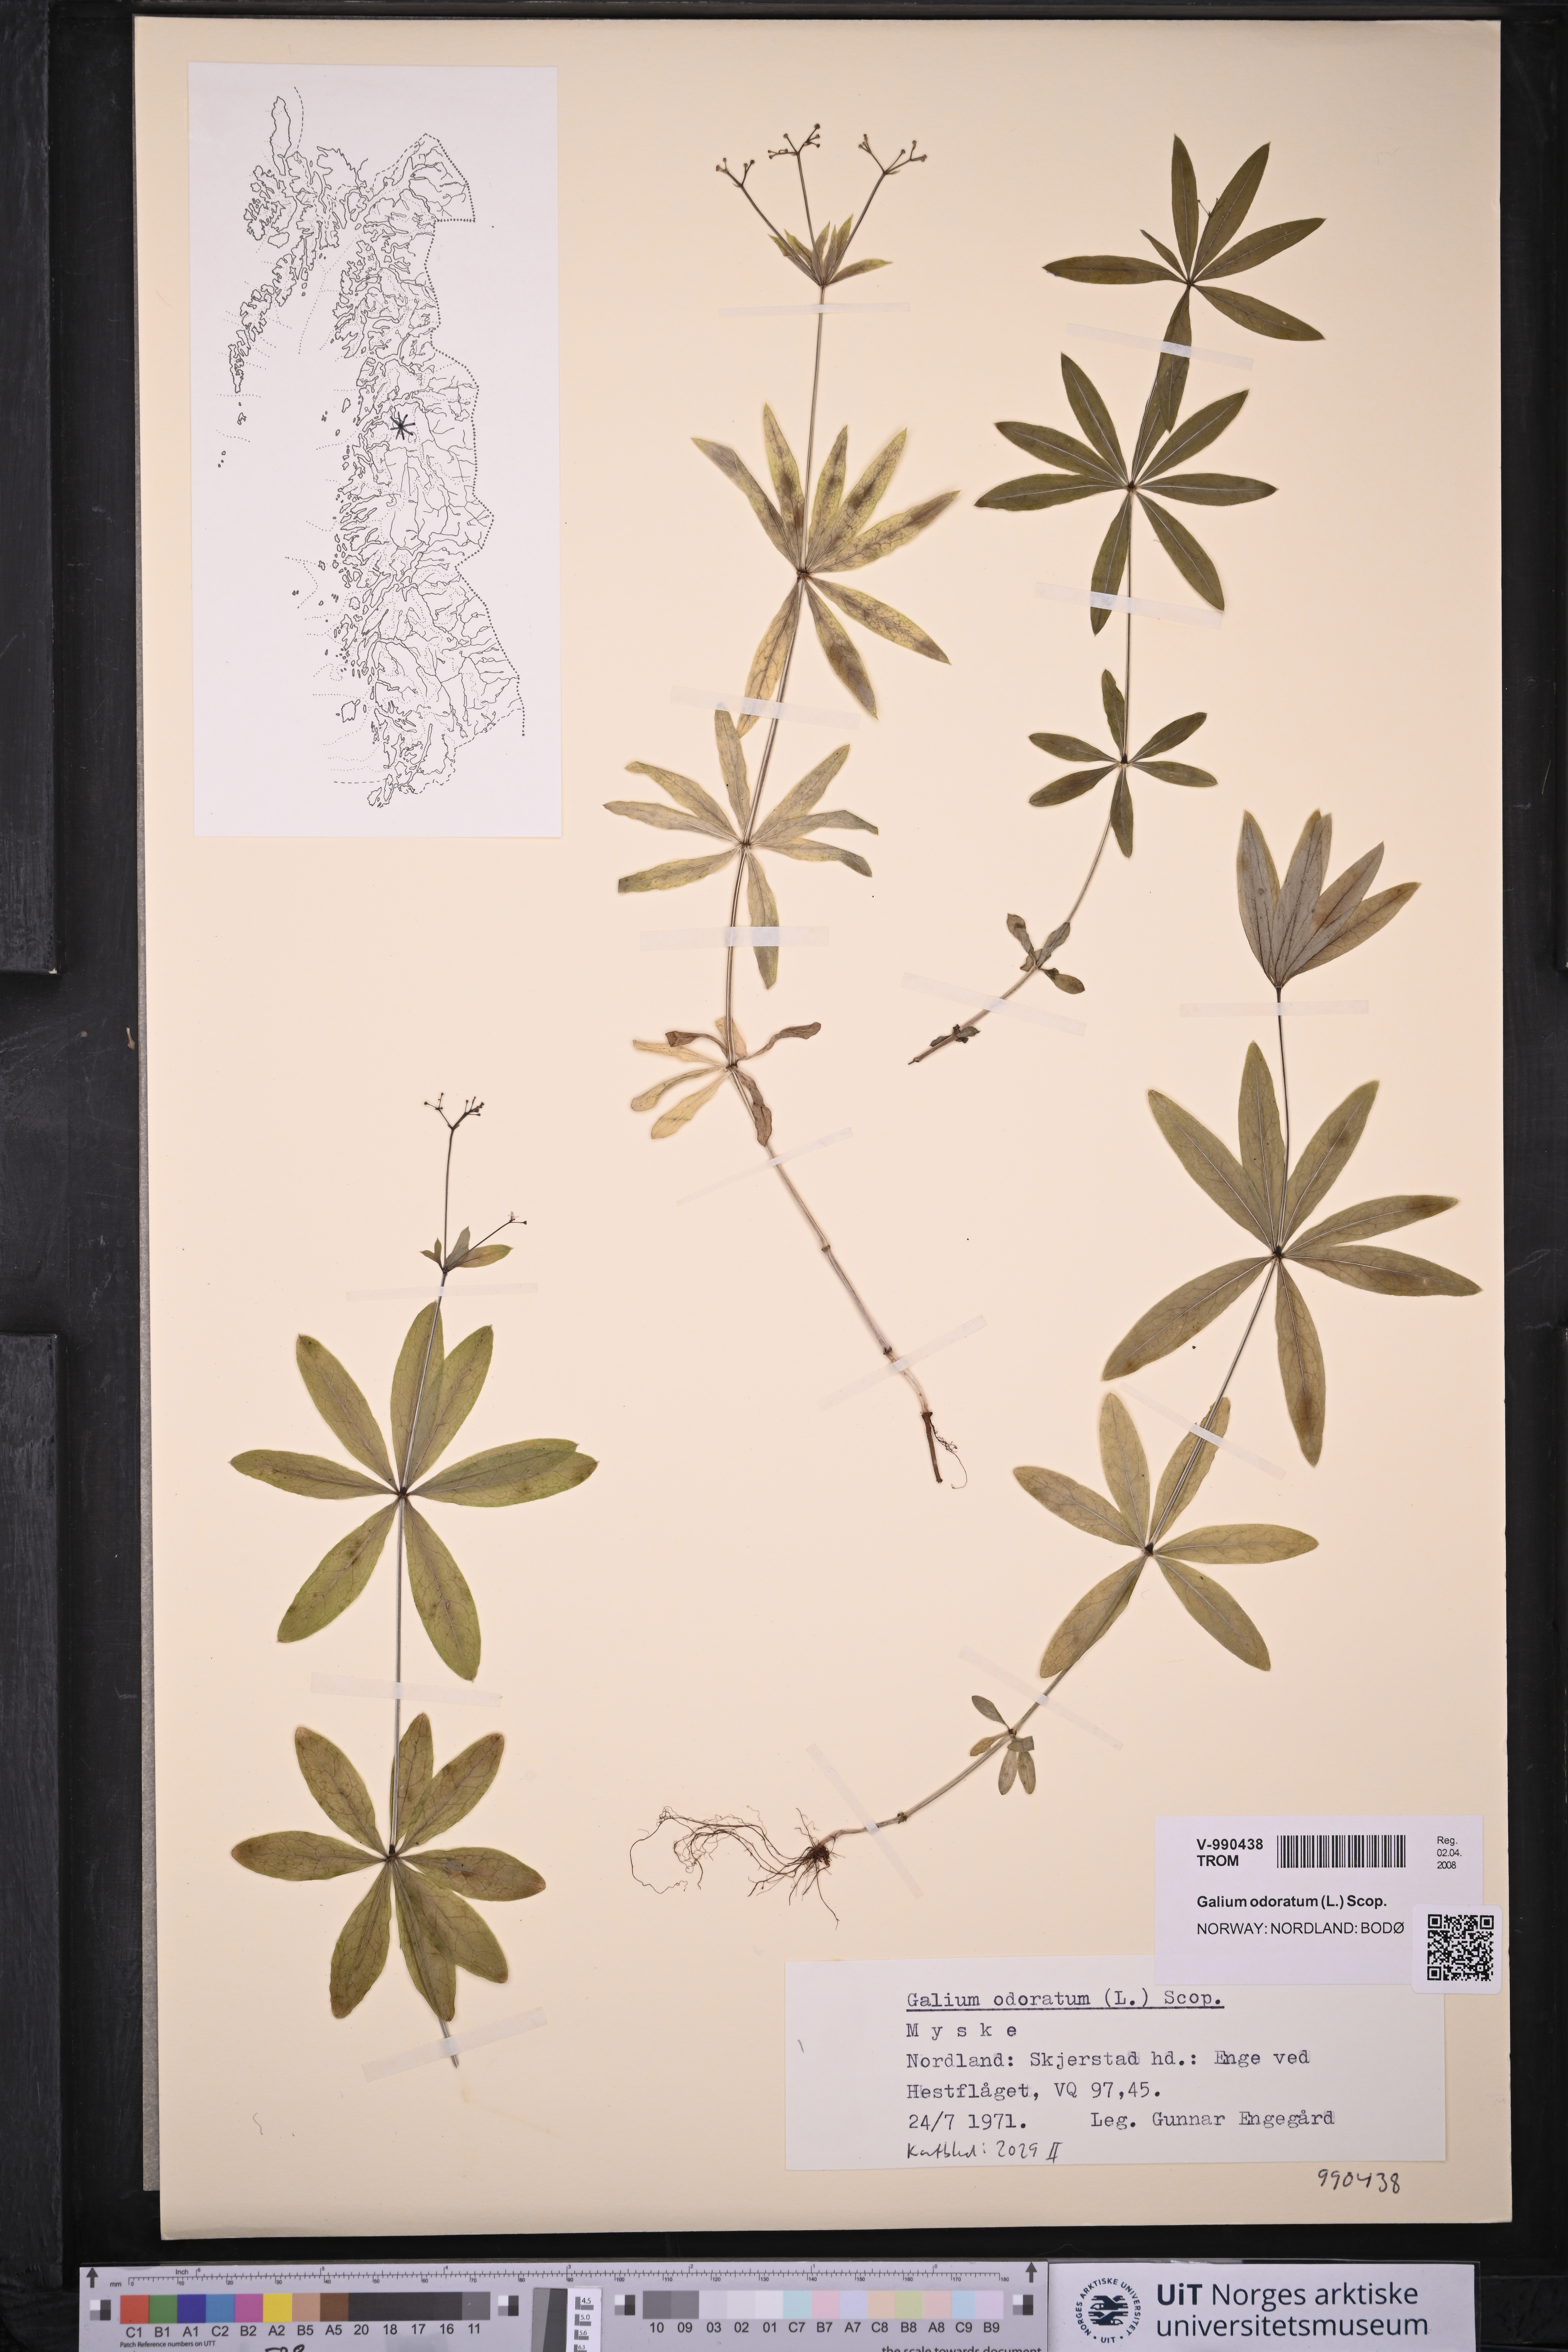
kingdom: Plantae
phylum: Tracheophyta
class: Magnoliopsida
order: Gentianales
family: Rubiaceae
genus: Galium
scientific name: Galium odoratum
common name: Sweet woodruff
